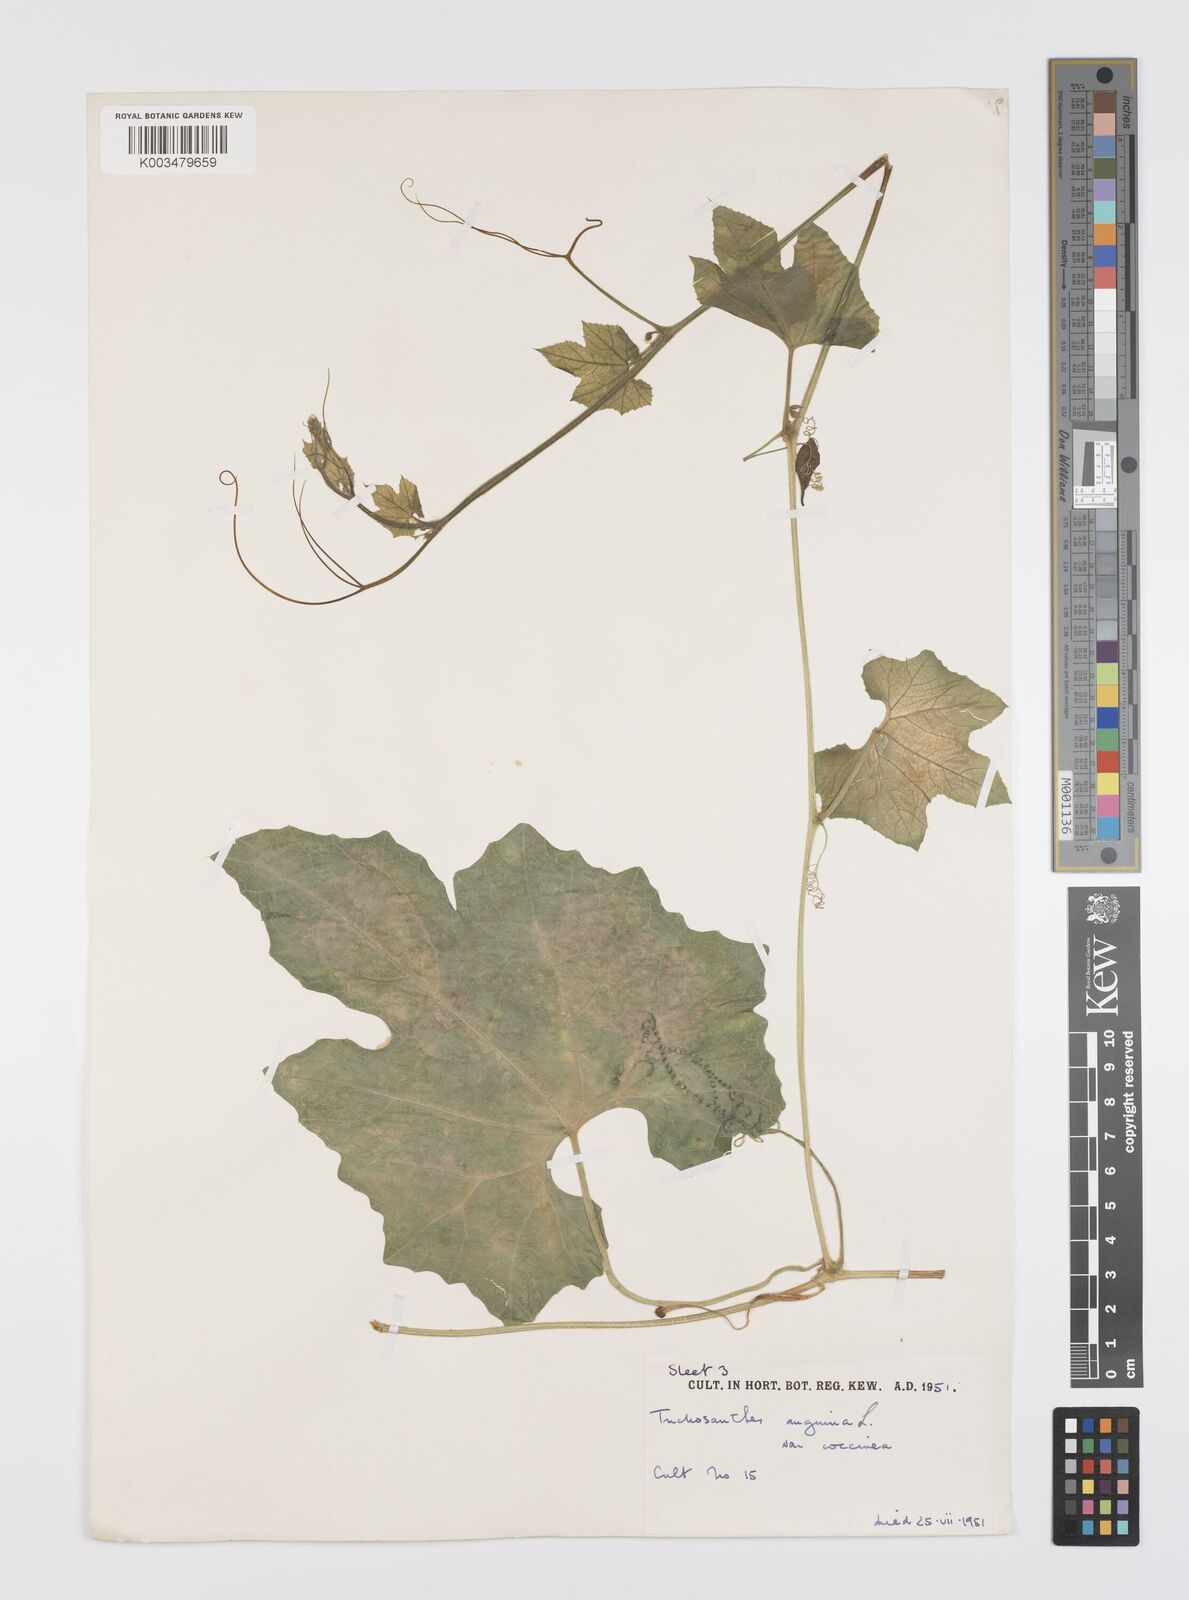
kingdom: Plantae
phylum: Tracheophyta
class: Magnoliopsida
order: Cucurbitales
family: Cucurbitaceae
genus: Trichosanthes
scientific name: Trichosanthes cucumerina
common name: Snakegourd
